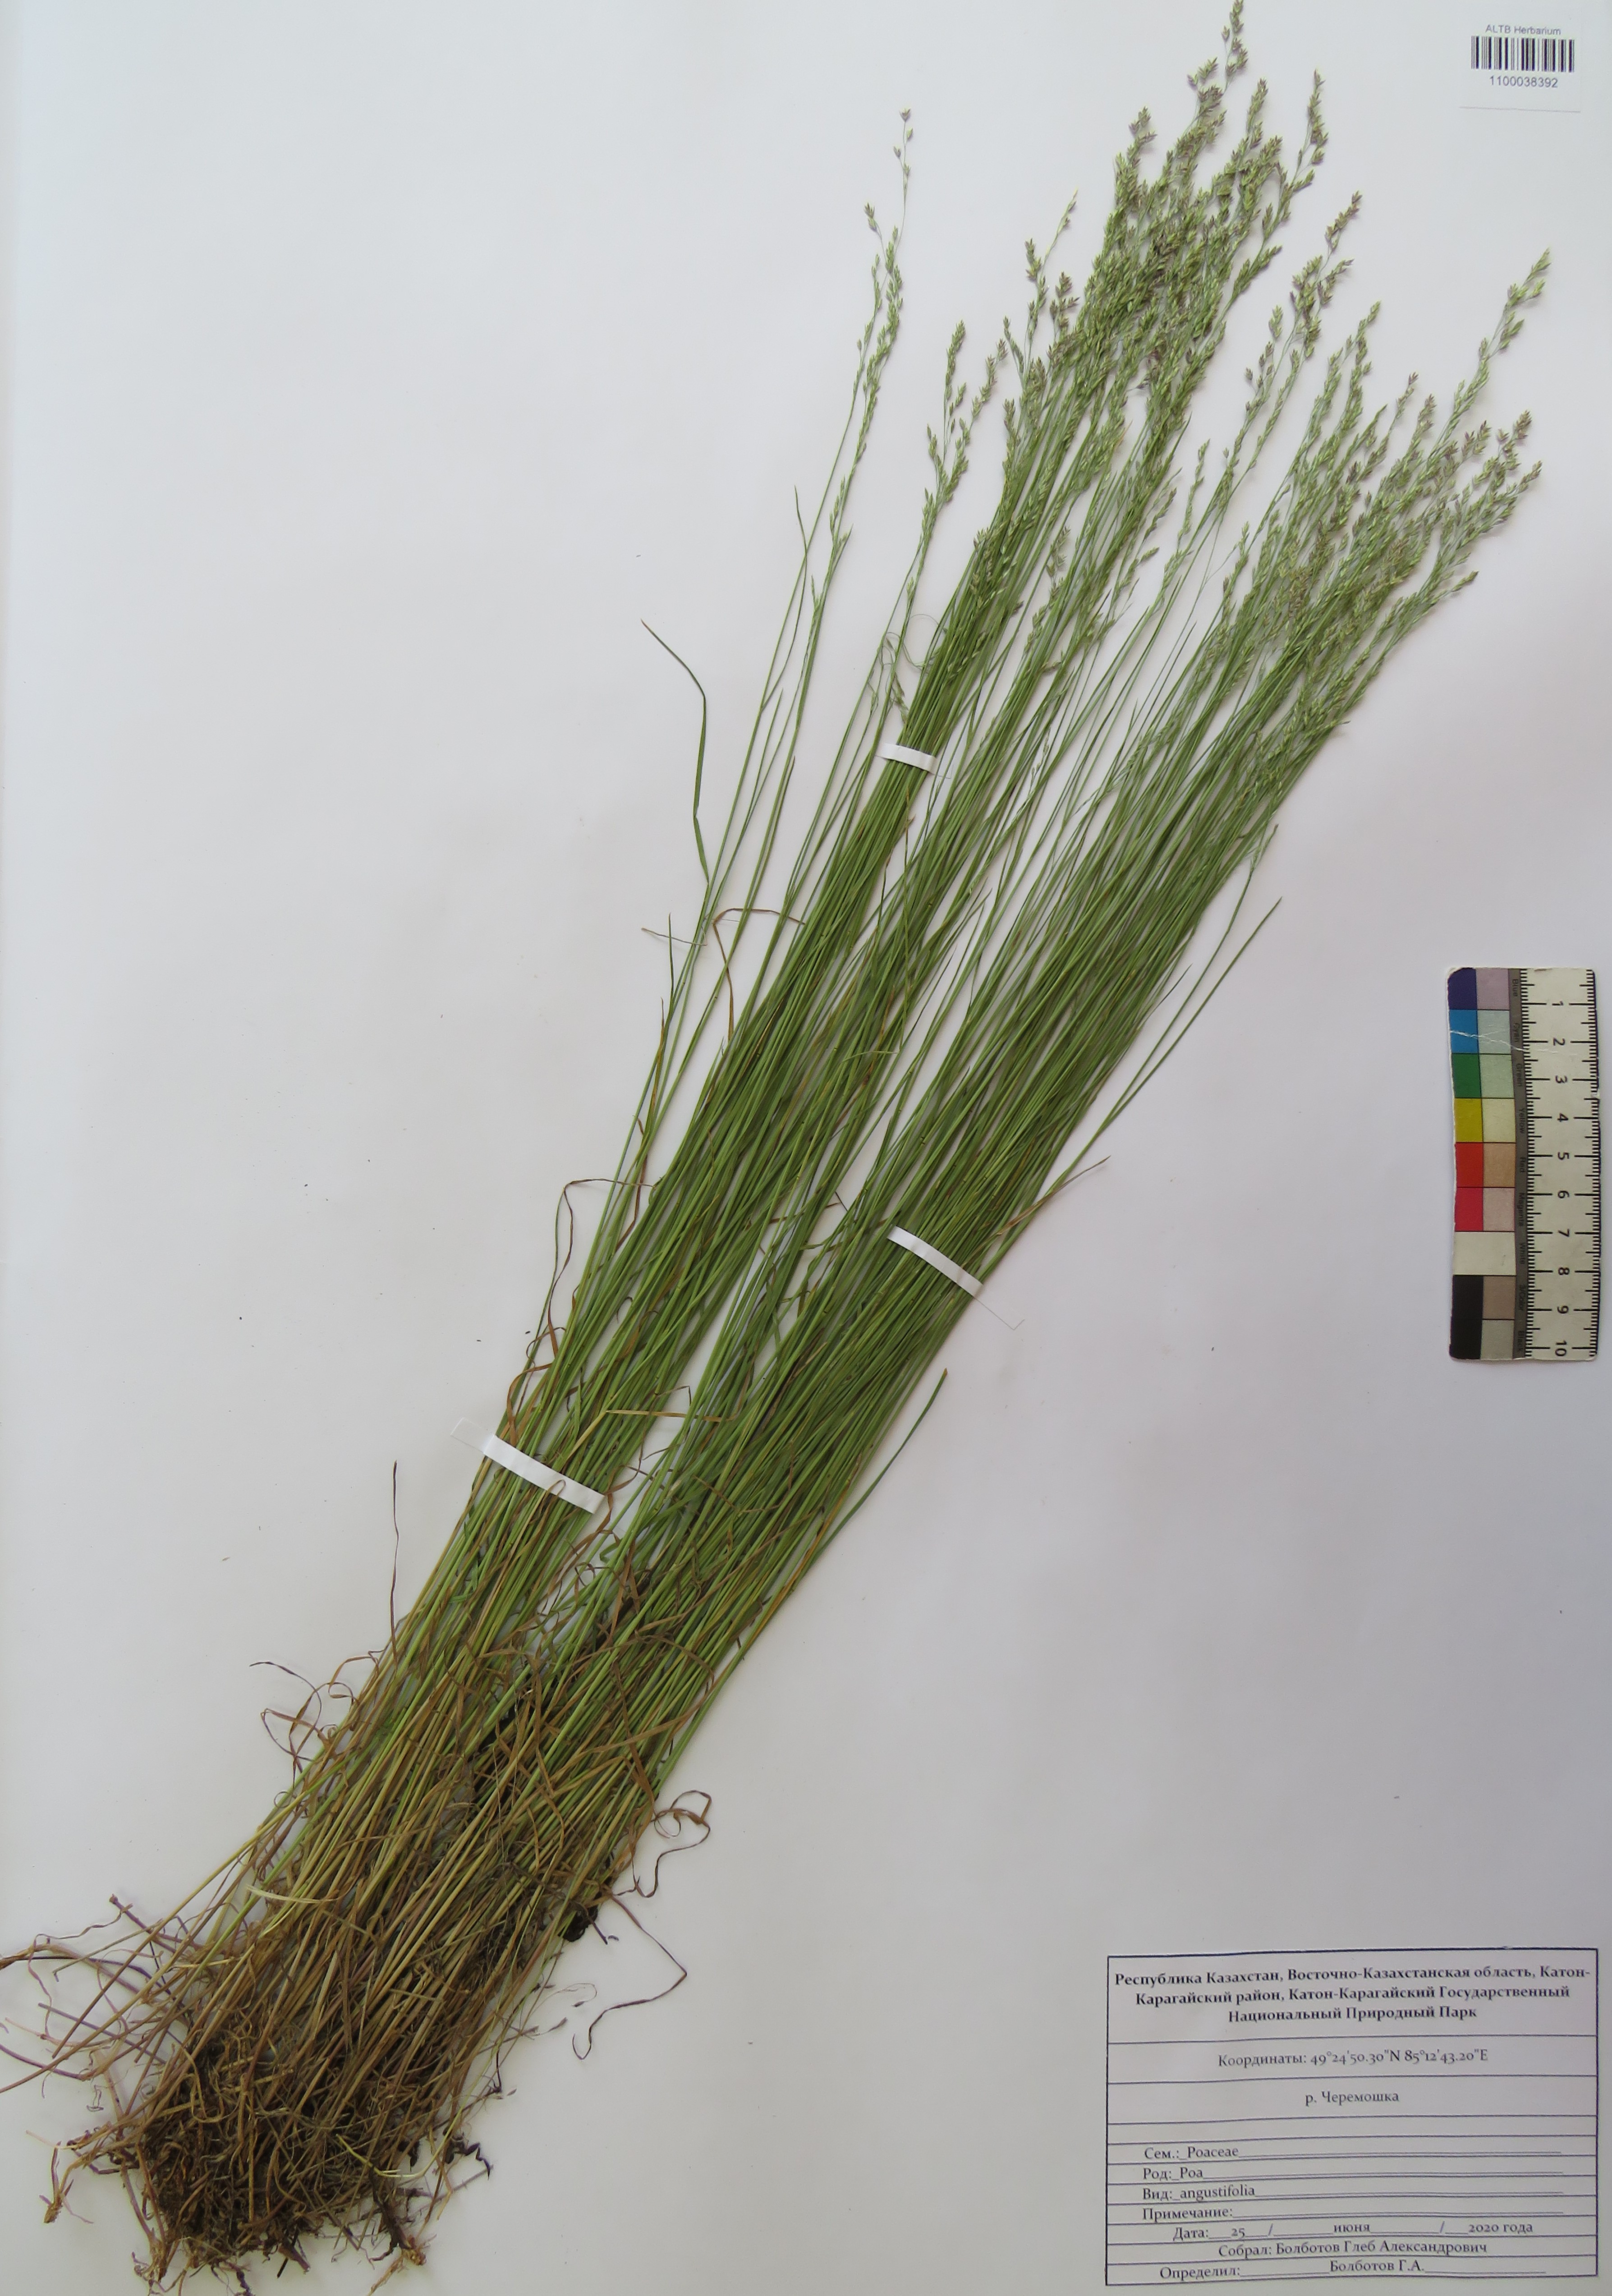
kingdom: Plantae
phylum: Tracheophyta
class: Liliopsida
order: Poales
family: Poaceae
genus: Poa
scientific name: Poa angustifolia
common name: Narrow-leaved meadow-grass
